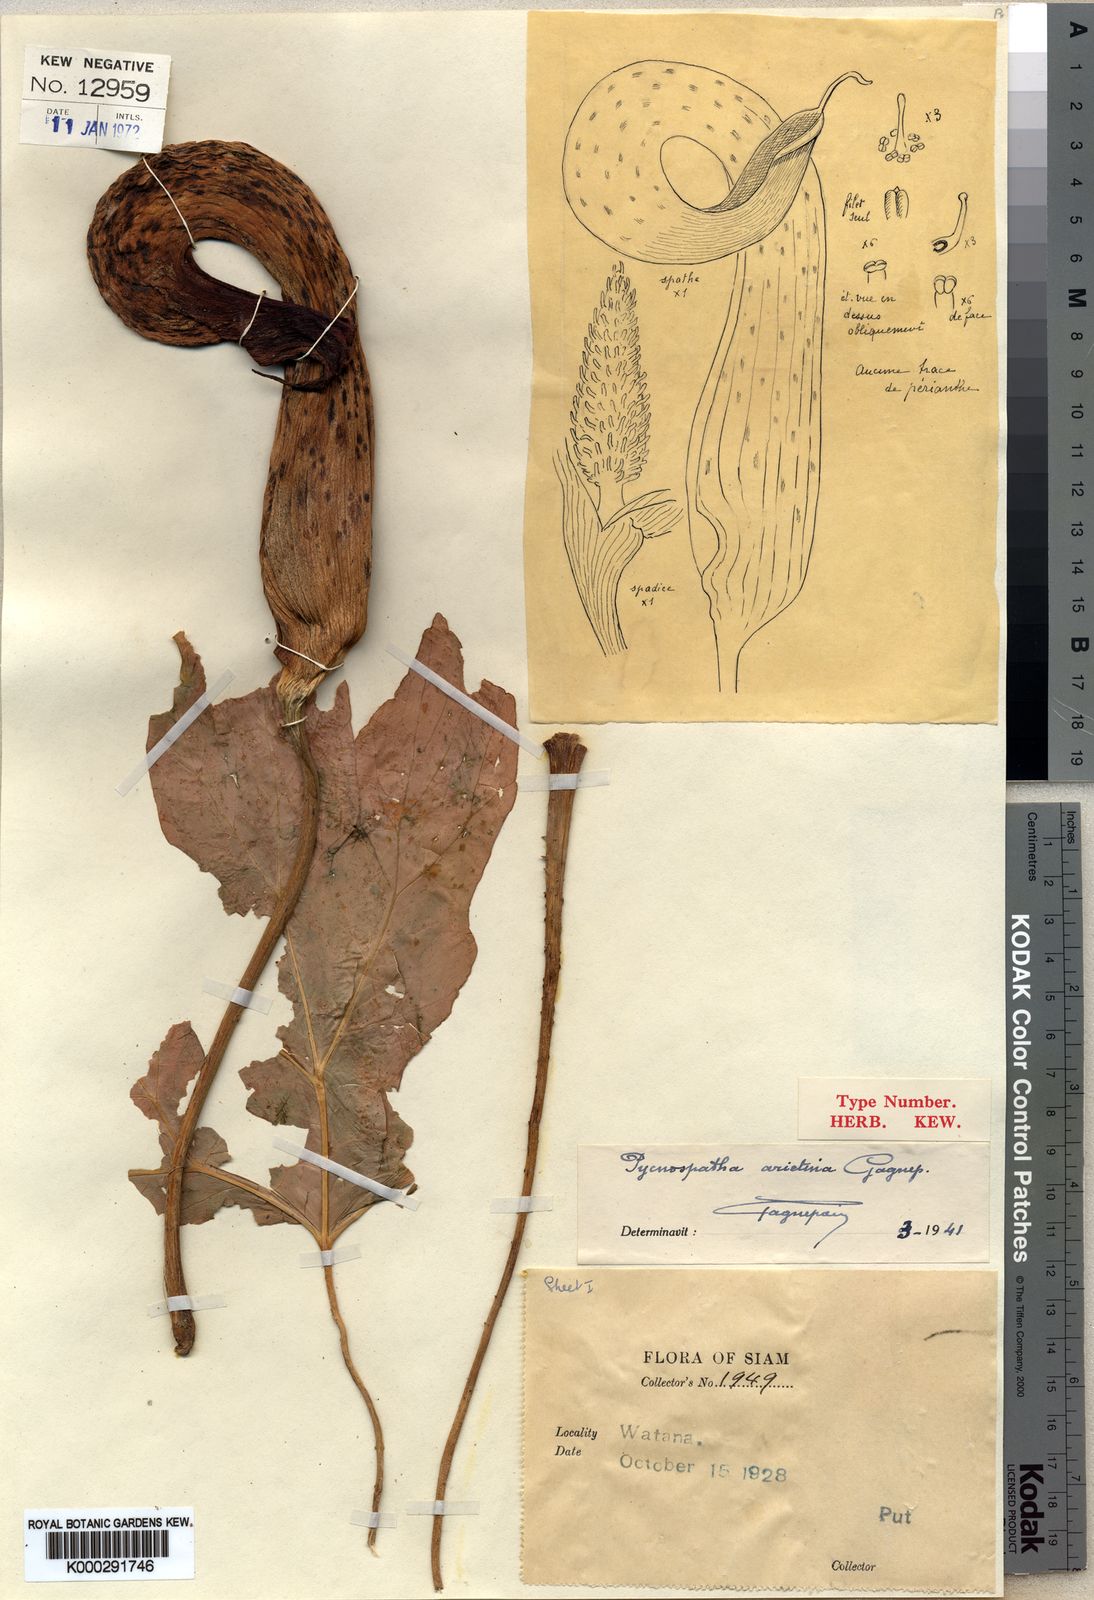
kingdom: Plantae
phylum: Tracheophyta
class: Liliopsida
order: Alismatales
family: Araceae
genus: Pycnospatha
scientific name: Pycnospatha arietina
